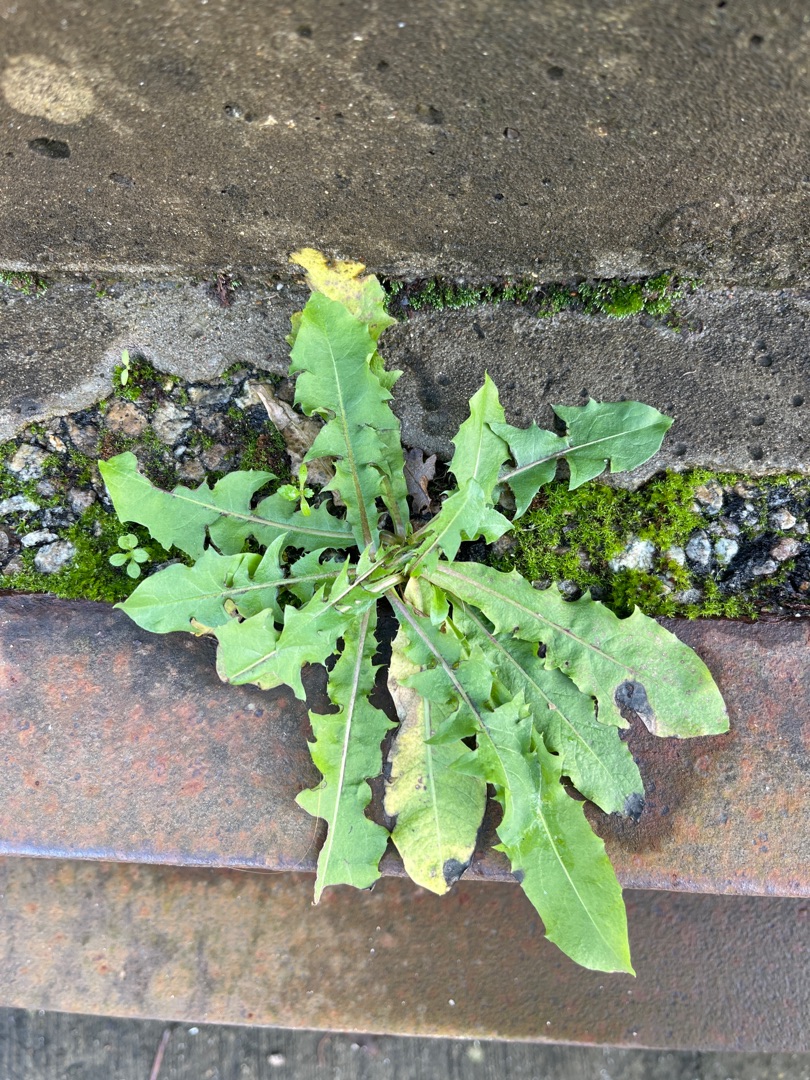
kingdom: Plantae
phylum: Tracheophyta
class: Magnoliopsida
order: Asterales
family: Asteraceae
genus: Taraxacum
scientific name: Taraxacum
